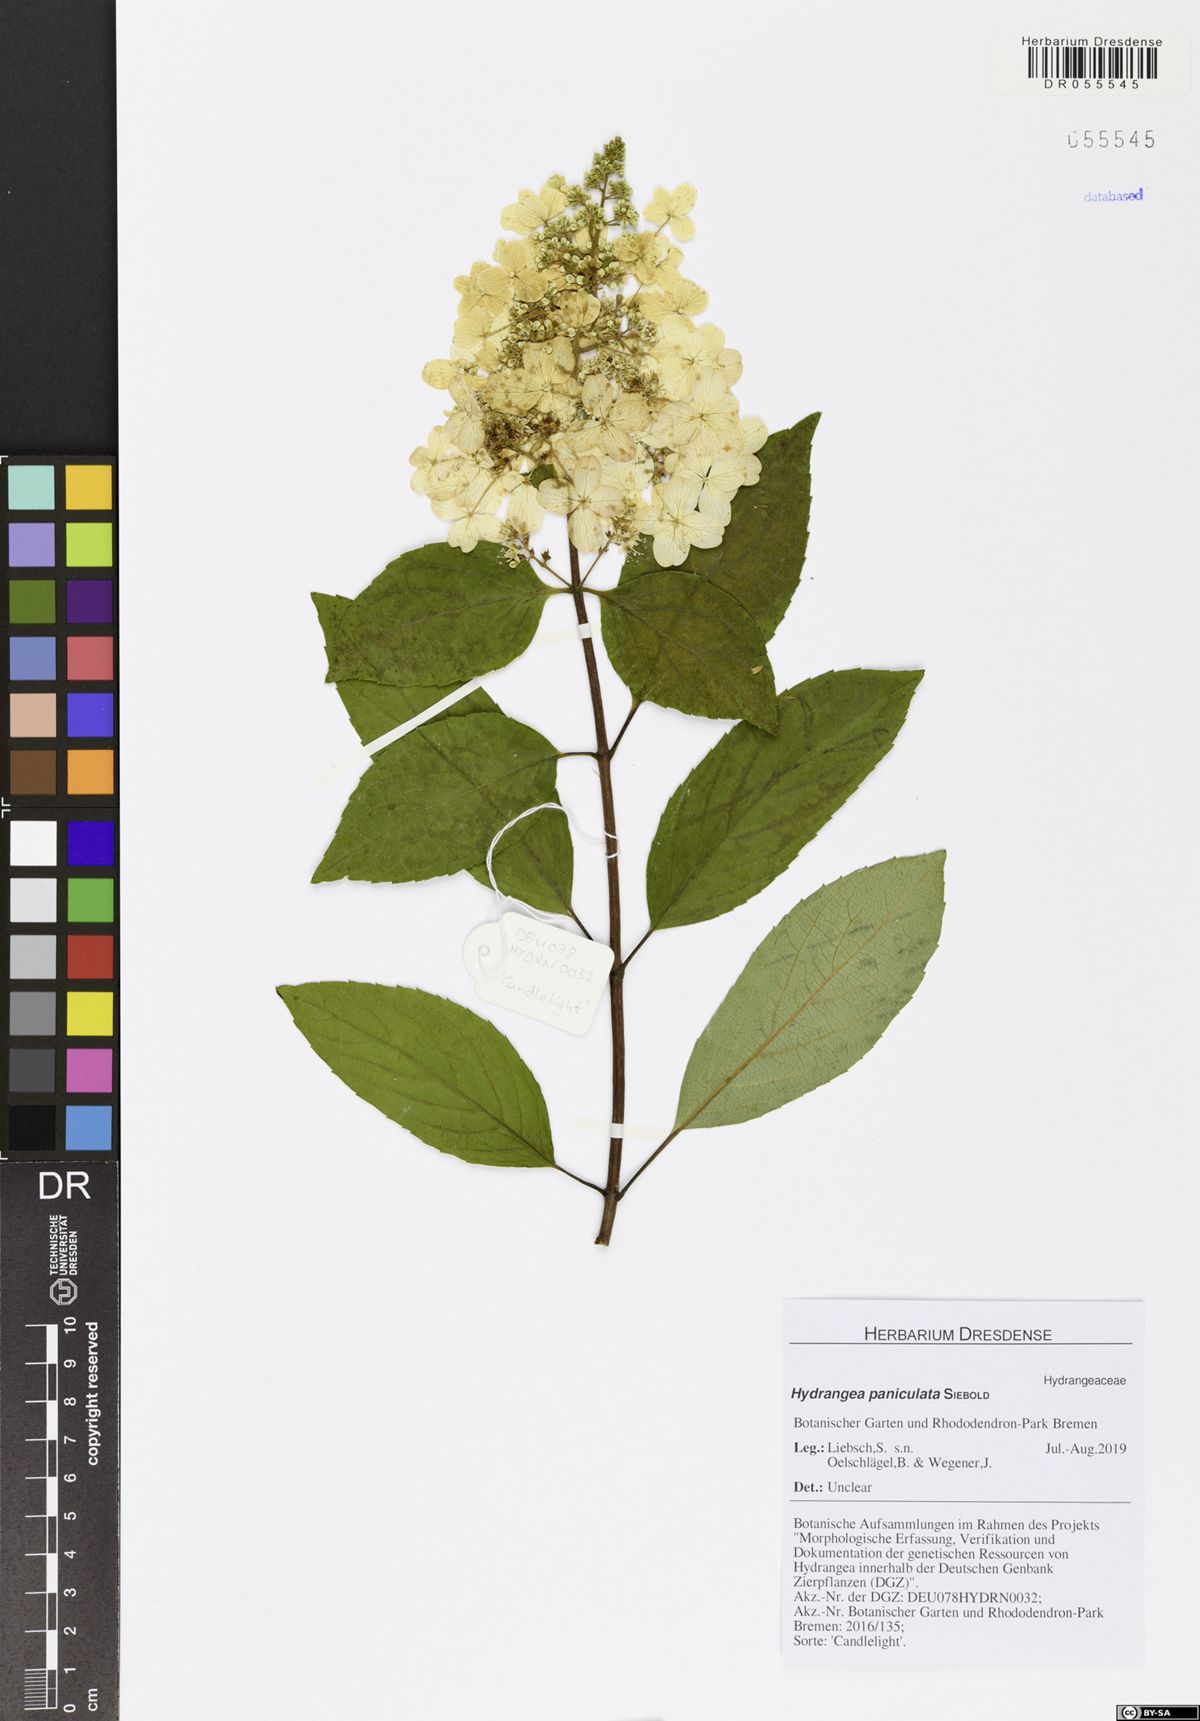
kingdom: Plantae
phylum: Tracheophyta
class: Magnoliopsida
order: Cornales
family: Hydrangeaceae
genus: Hydrangea
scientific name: Hydrangea paniculata
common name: Panicled hydrangea
